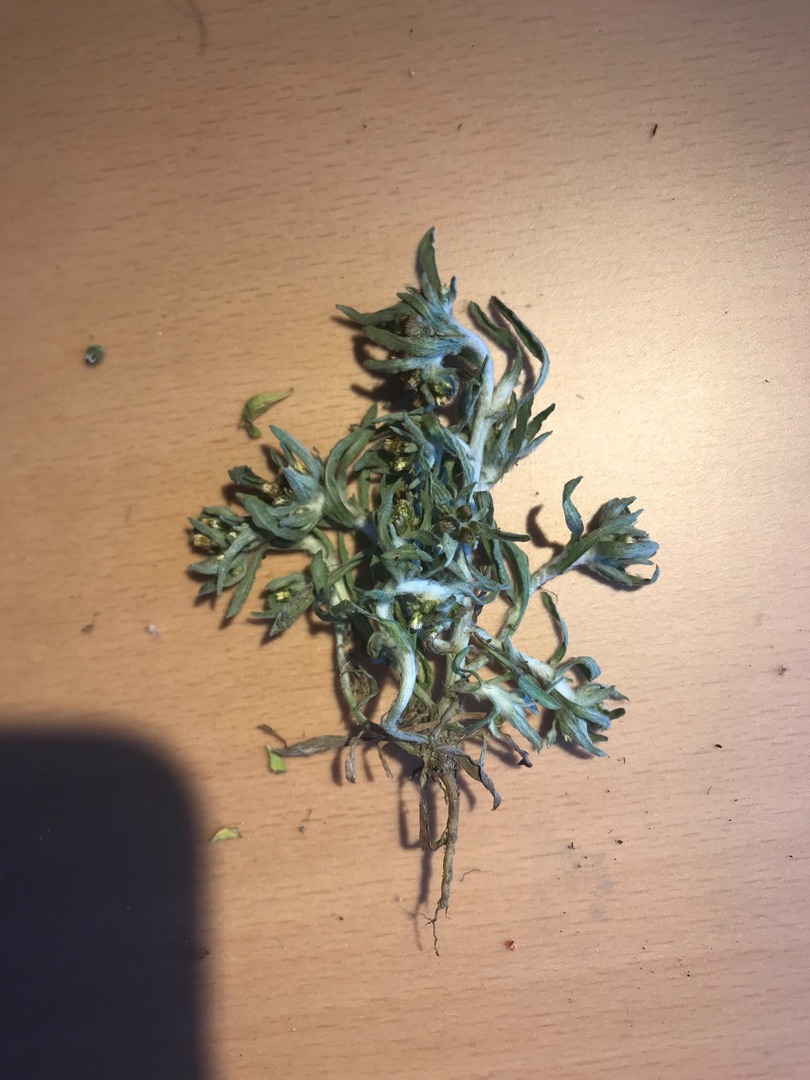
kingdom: Plantae
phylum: Tracheophyta
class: Magnoliopsida
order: Asterales
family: Asteraceae
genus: Gnaphalium
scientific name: Gnaphalium uliginosum
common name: Sump-evighedsblomst
